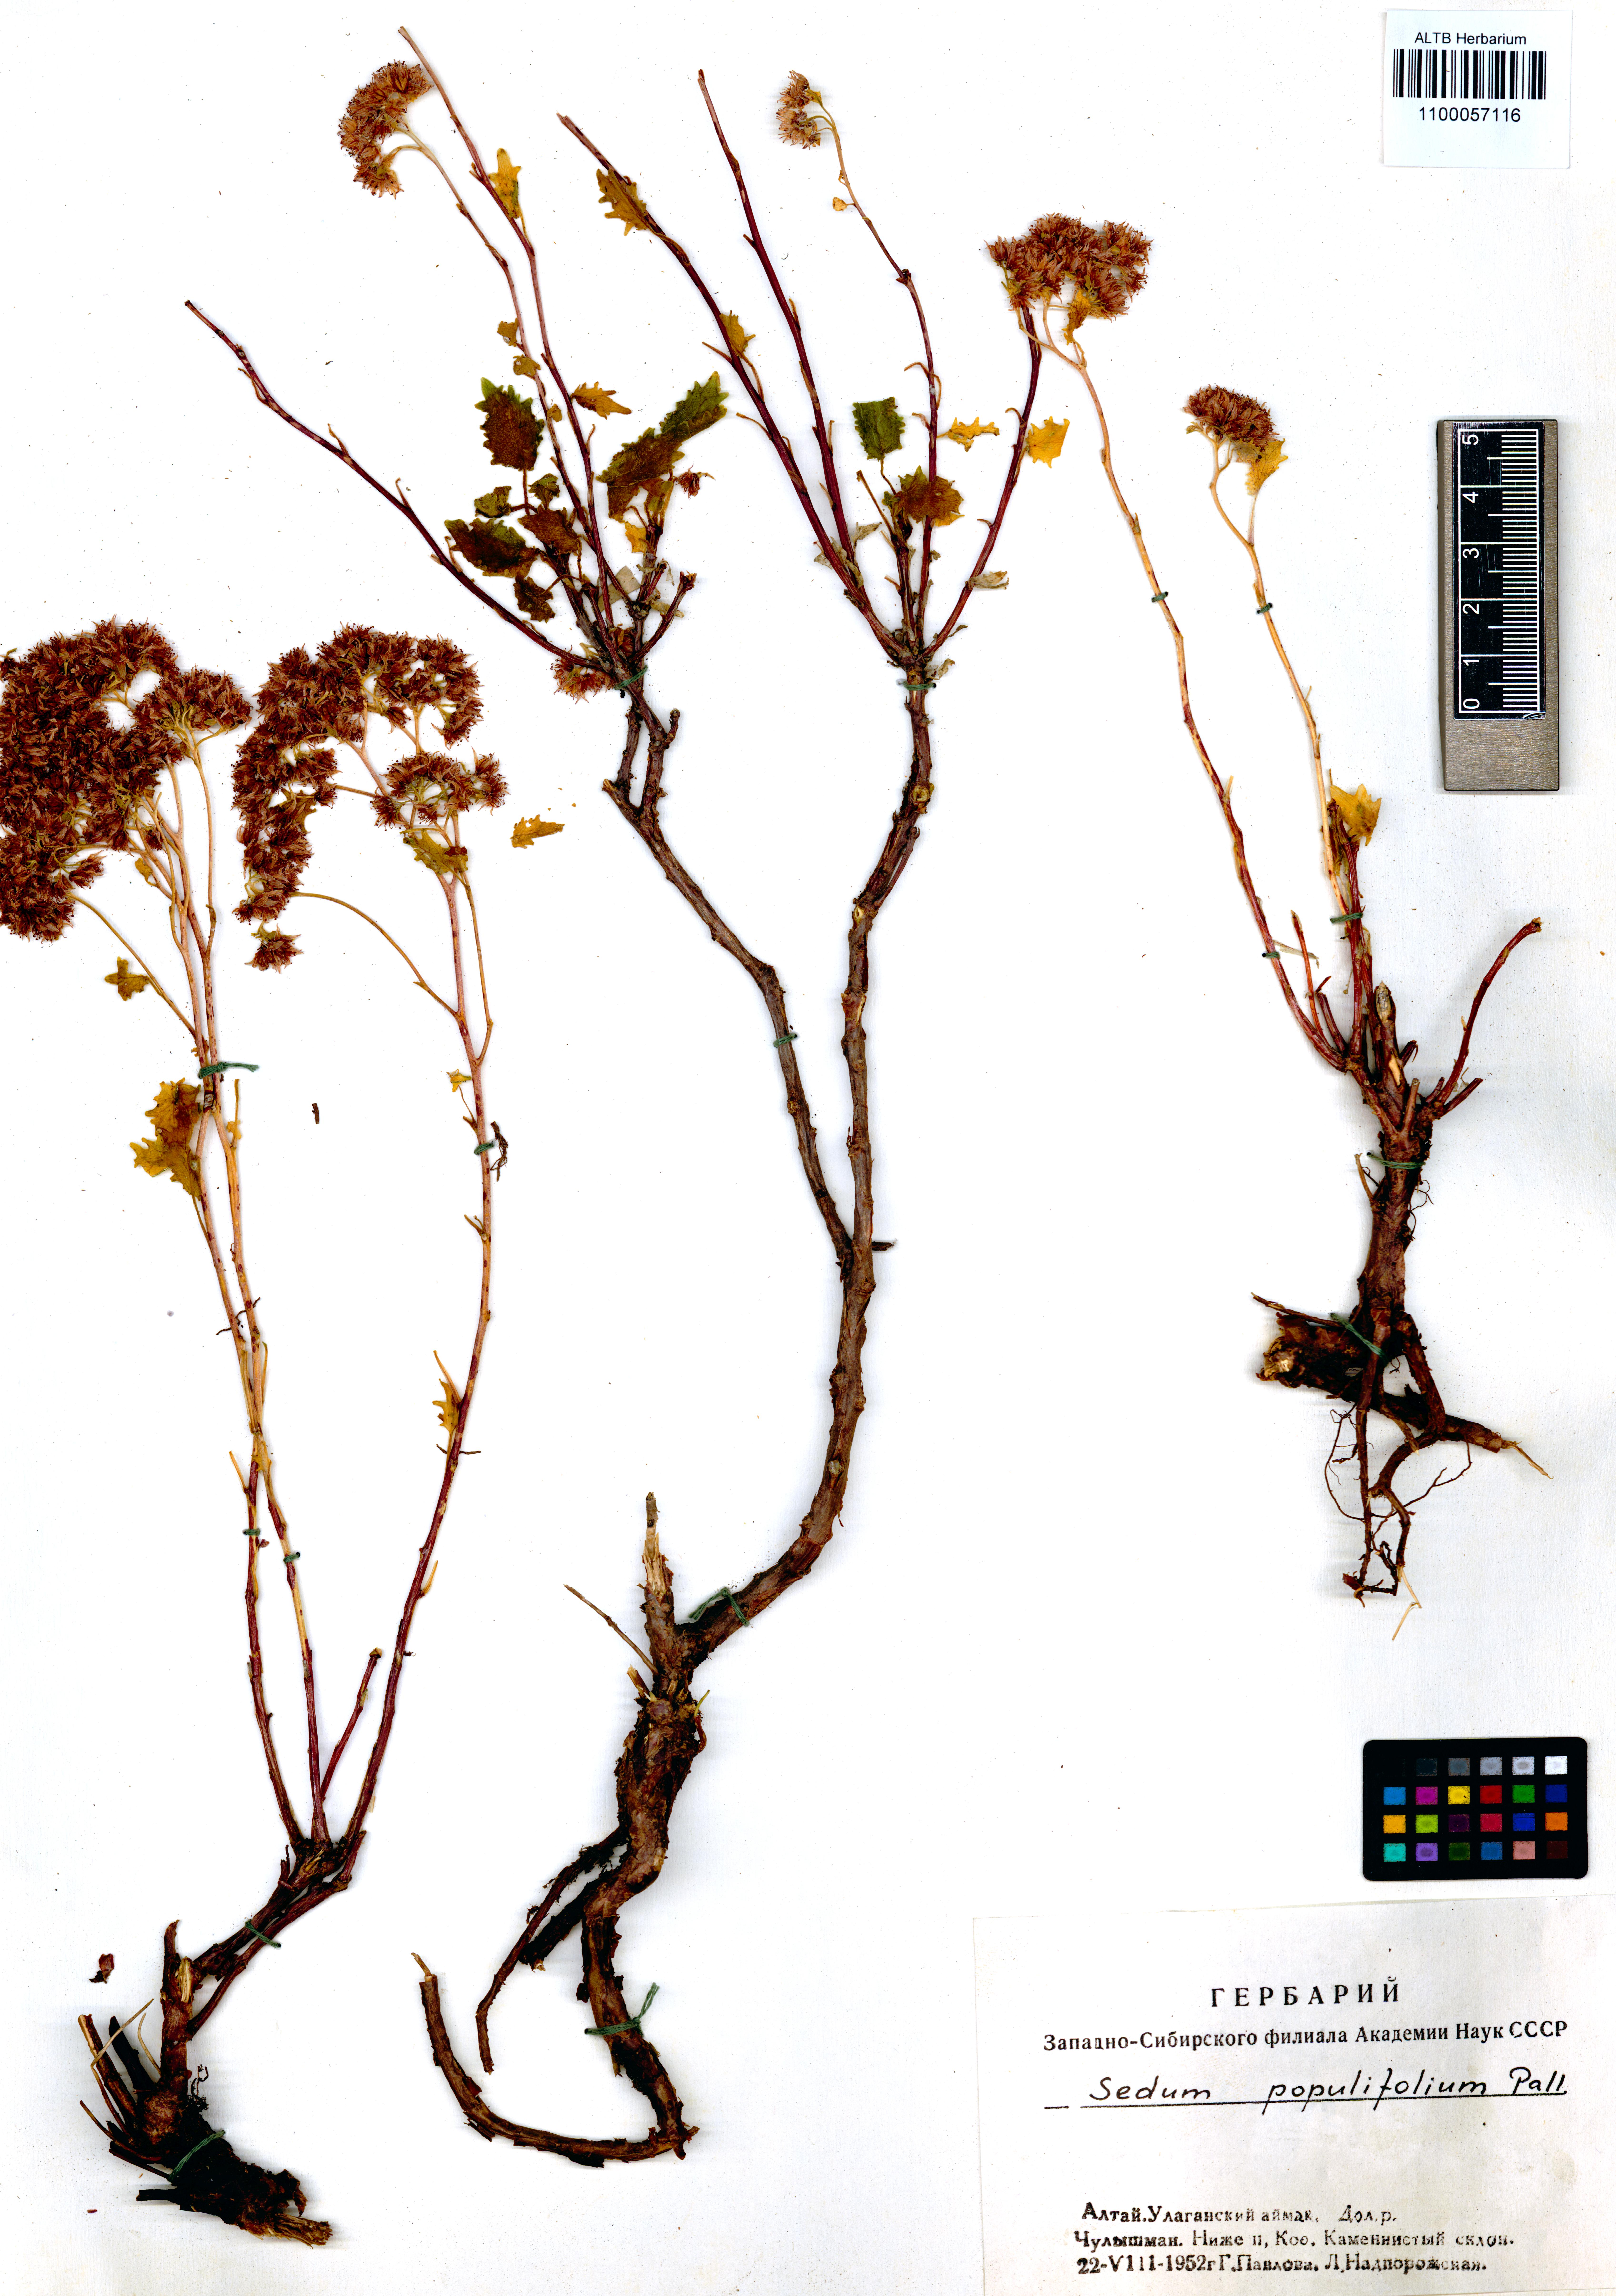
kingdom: Plantae
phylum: Tracheophyta
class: Magnoliopsida
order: Saxifragales
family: Crassulaceae
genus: Hylotelephium
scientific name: Hylotelephium populifolium
